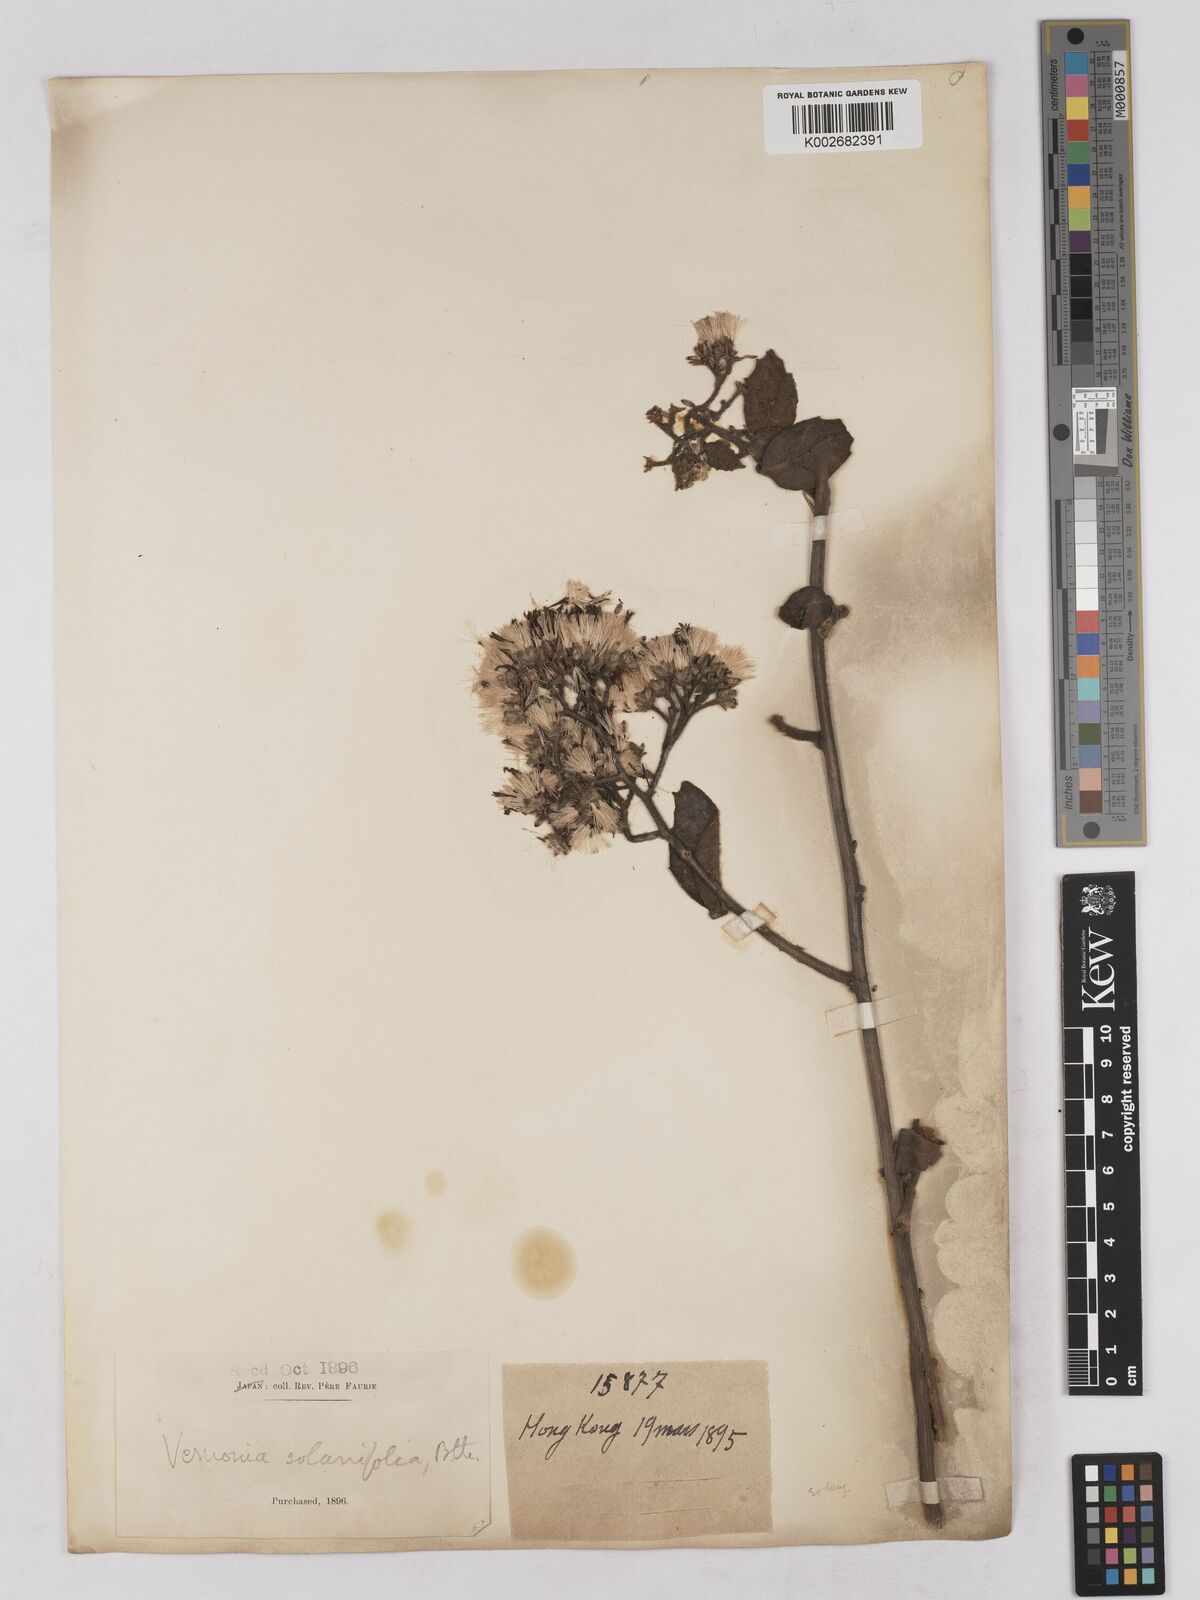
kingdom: Plantae
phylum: Tracheophyta
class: Magnoliopsida
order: Asterales
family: Asteraceae
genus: Strobocalyx
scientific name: Strobocalyx solanifolia
